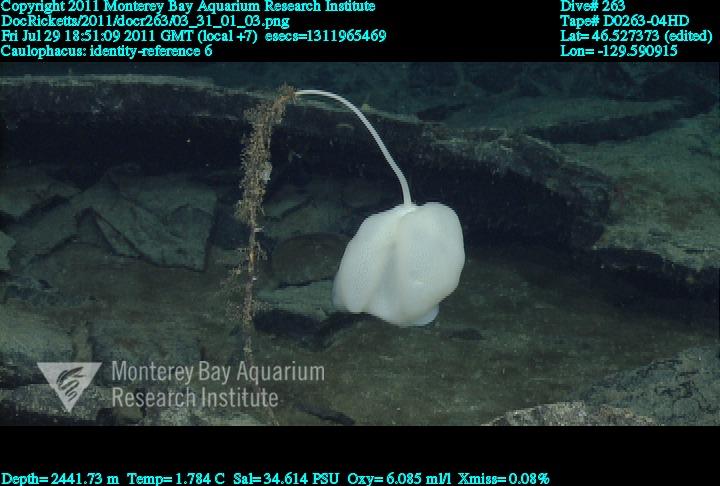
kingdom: Animalia
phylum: Porifera
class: Hexactinellida
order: Lyssacinosida
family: Rossellidae
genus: Caulophacus
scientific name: Caulophacus
